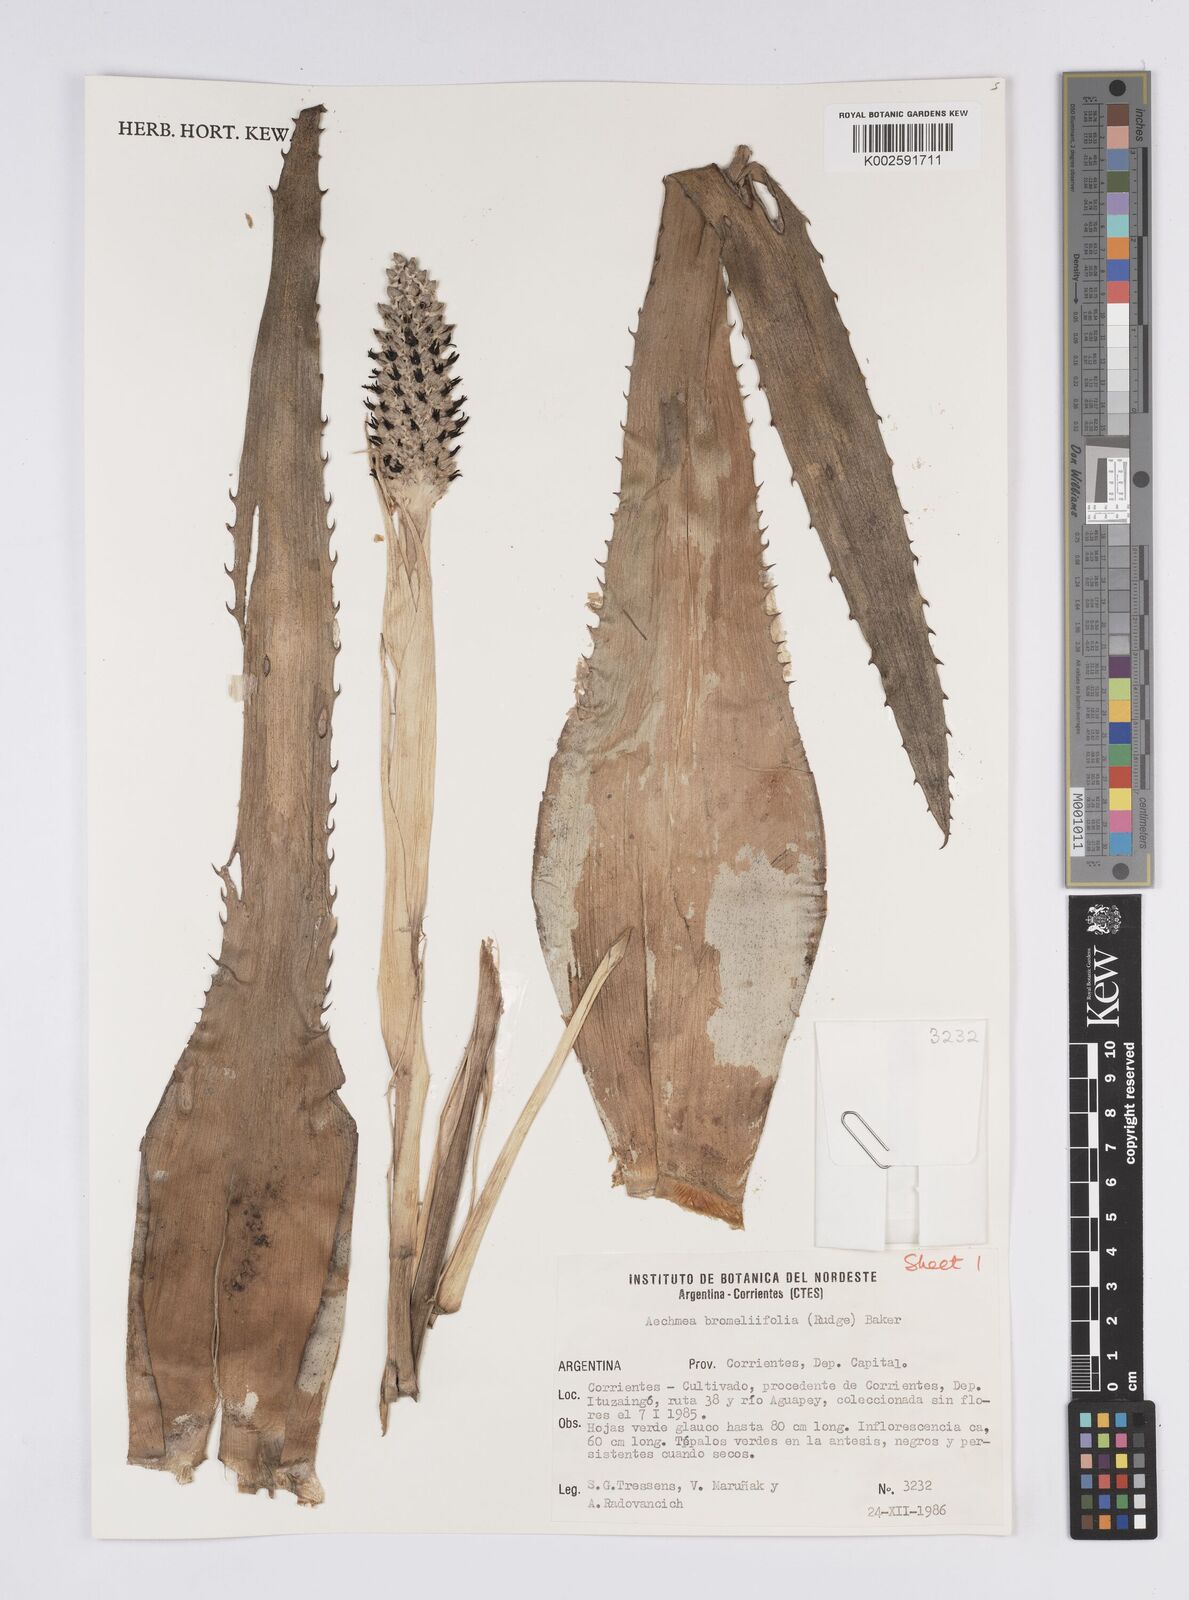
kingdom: Plantae
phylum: Tracheophyta
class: Liliopsida
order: Poales
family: Bromeliaceae
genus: Aechmea
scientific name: Aechmea bromeliifolia
